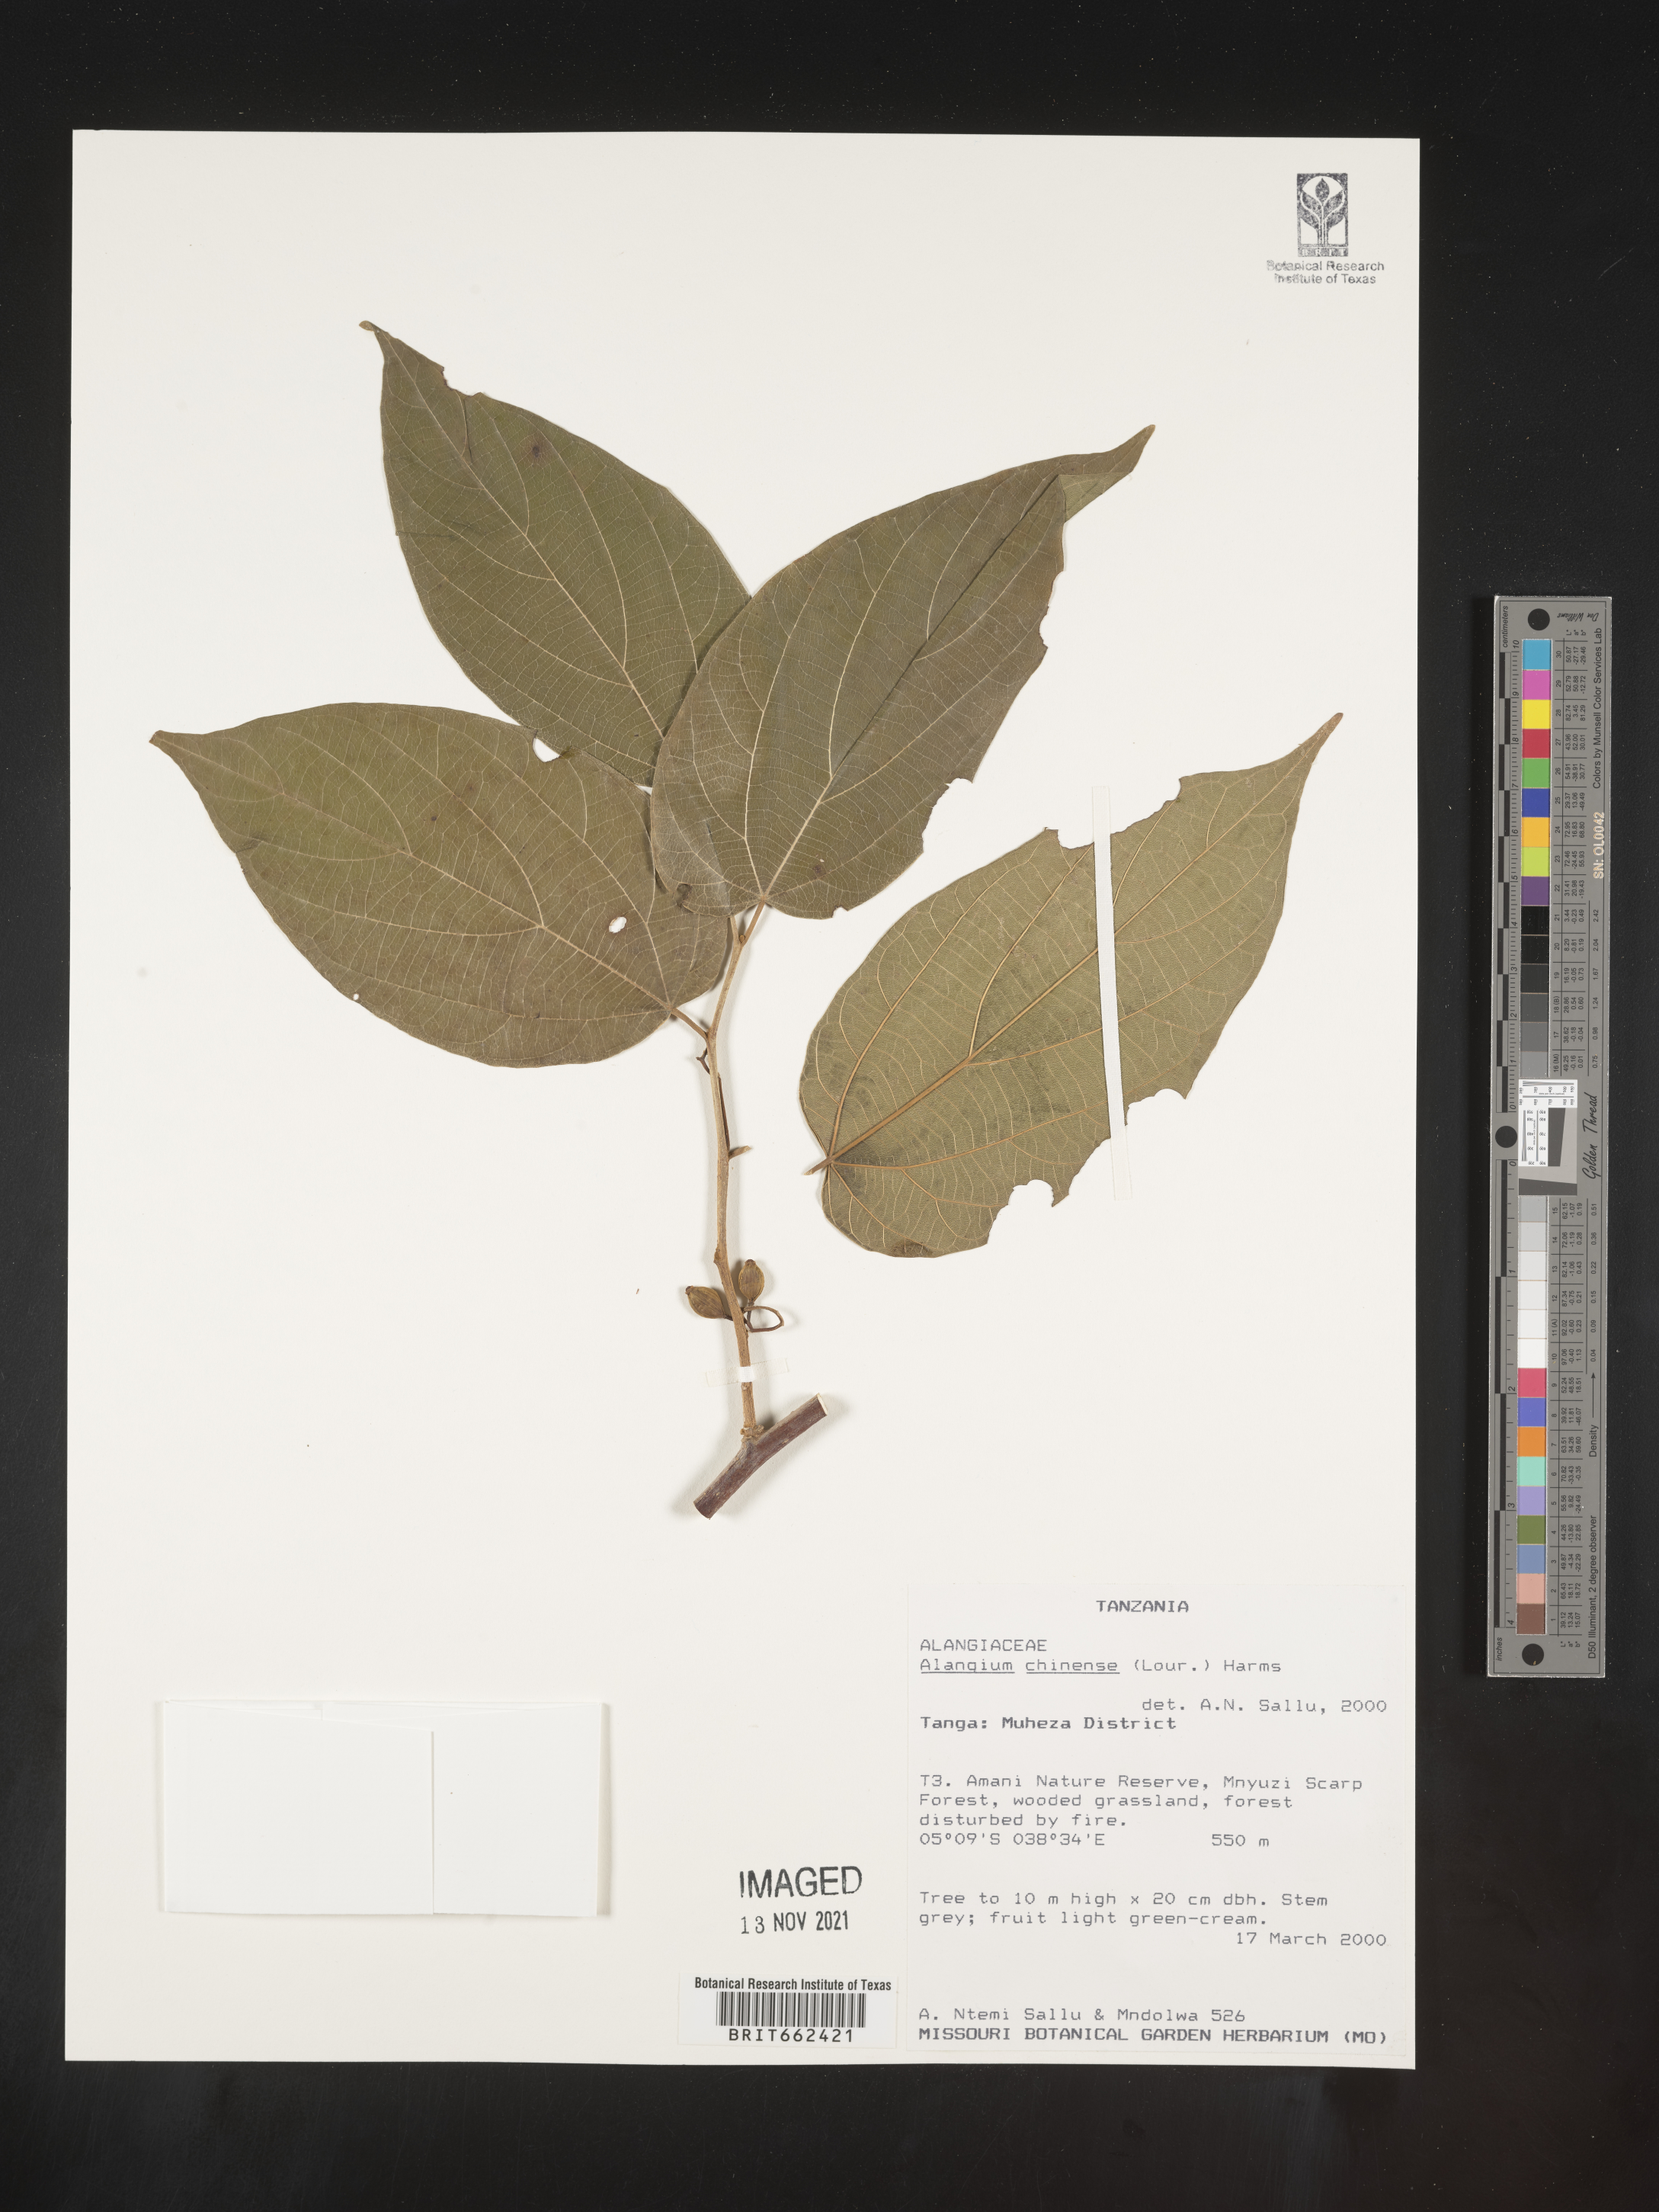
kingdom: Plantae
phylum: Tracheophyta
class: Magnoliopsida
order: Cornales
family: Cornaceae
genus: Alangium
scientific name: Alangium
